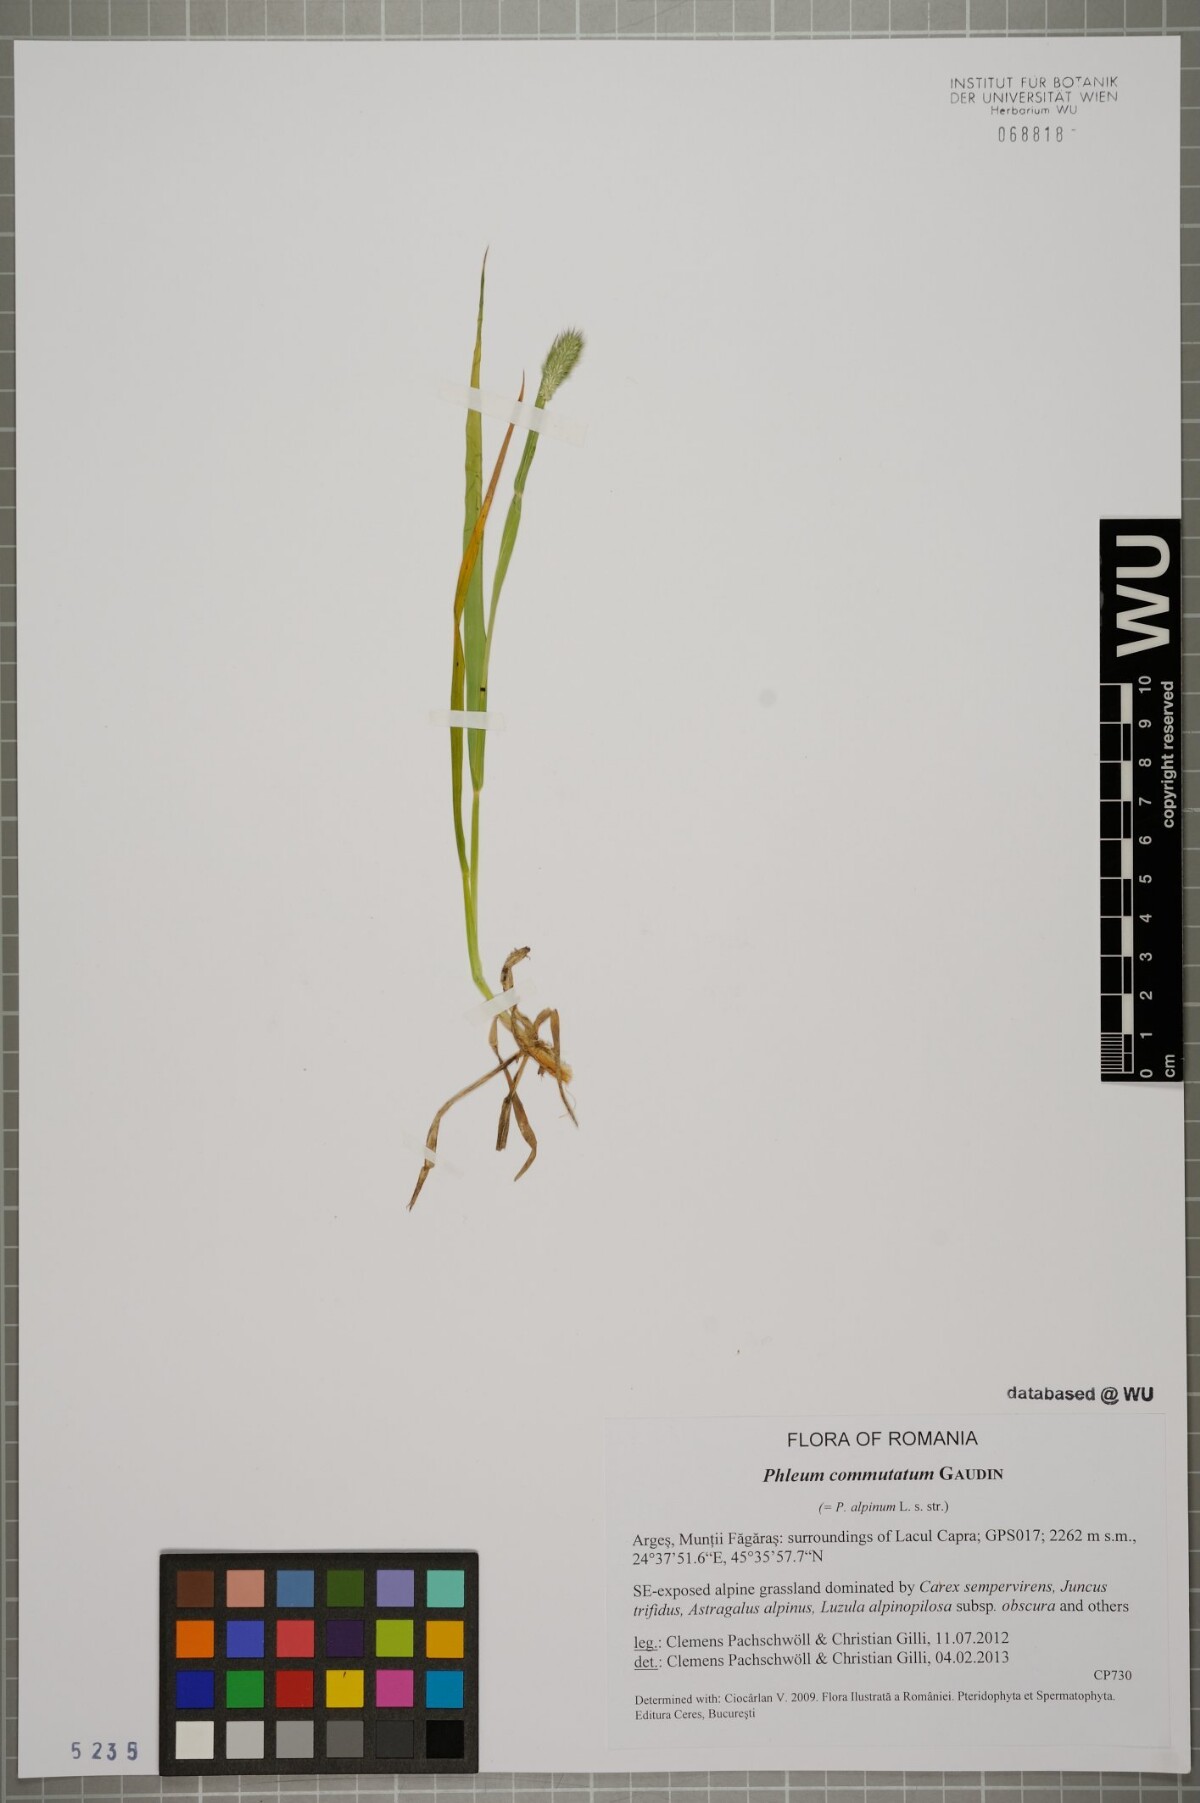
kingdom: Plantae
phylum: Tracheophyta
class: Liliopsida
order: Poales
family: Poaceae
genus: Phleum
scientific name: Phleum alpinum
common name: Alpine cat's-tail
